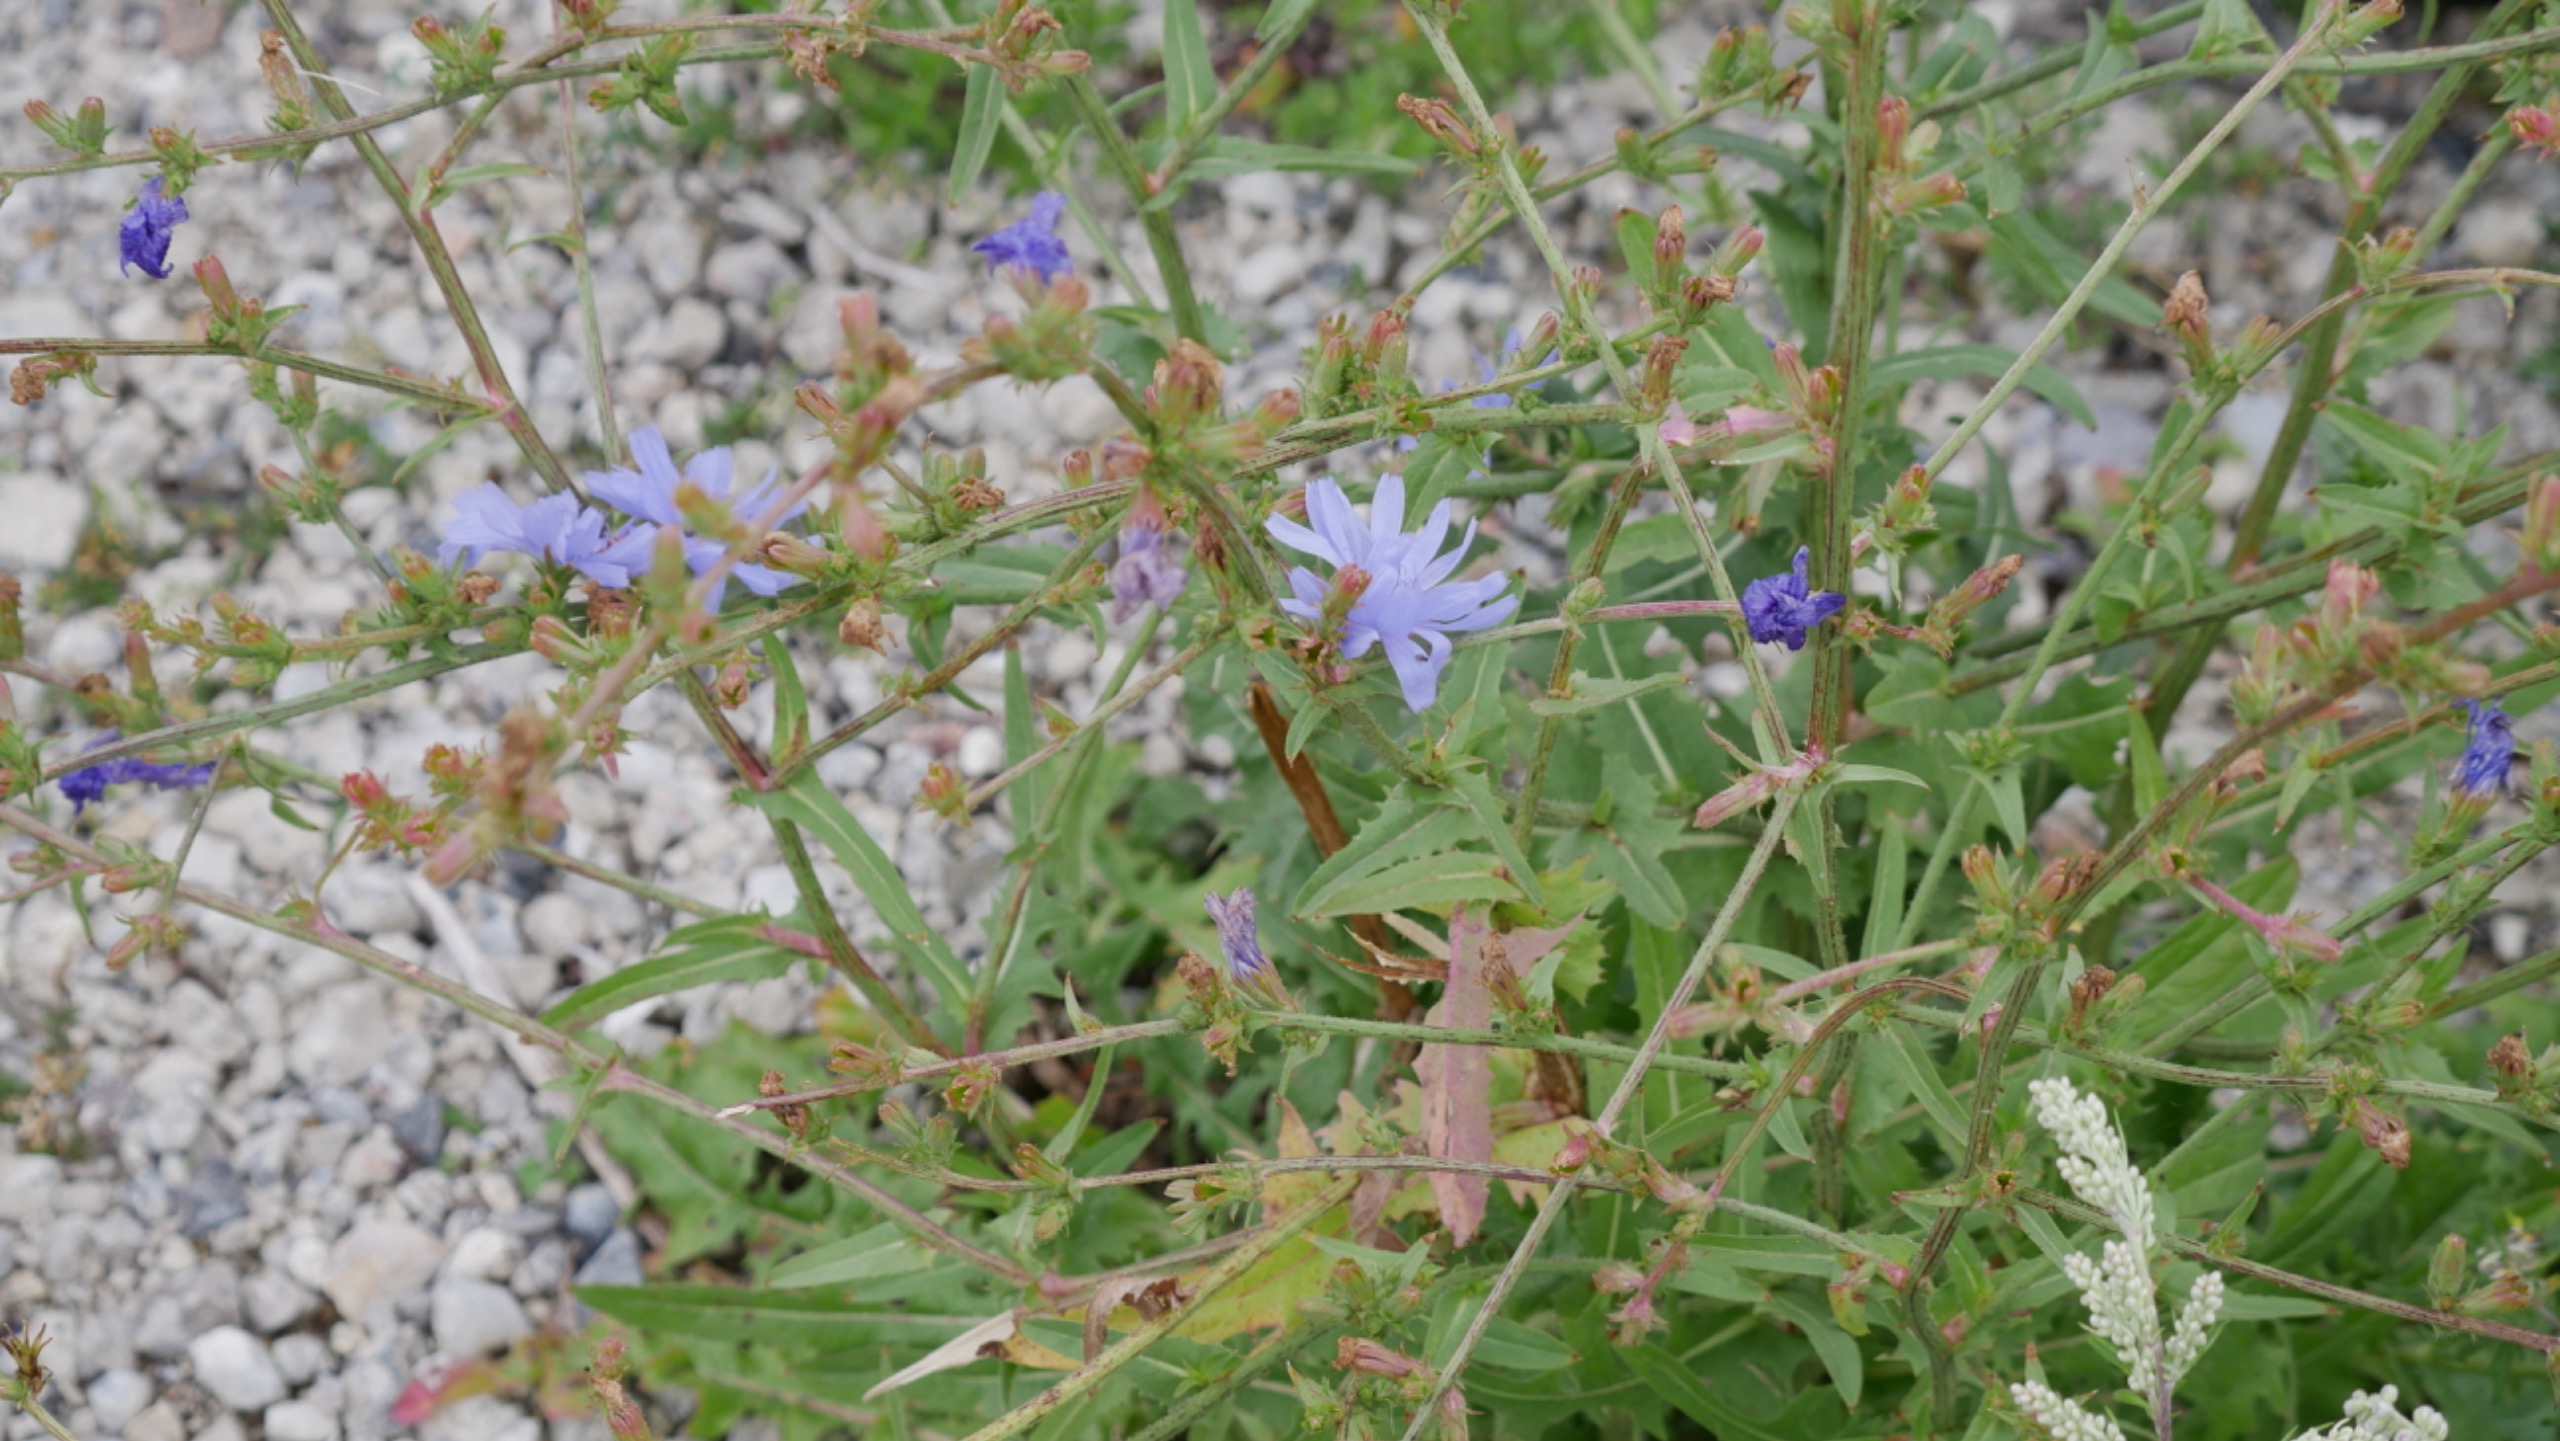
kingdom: Plantae
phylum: Tracheophyta
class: Magnoliopsida
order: Asterales
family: Asteraceae
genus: Cichorium
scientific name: Cichorium intybus
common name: Cikorie
